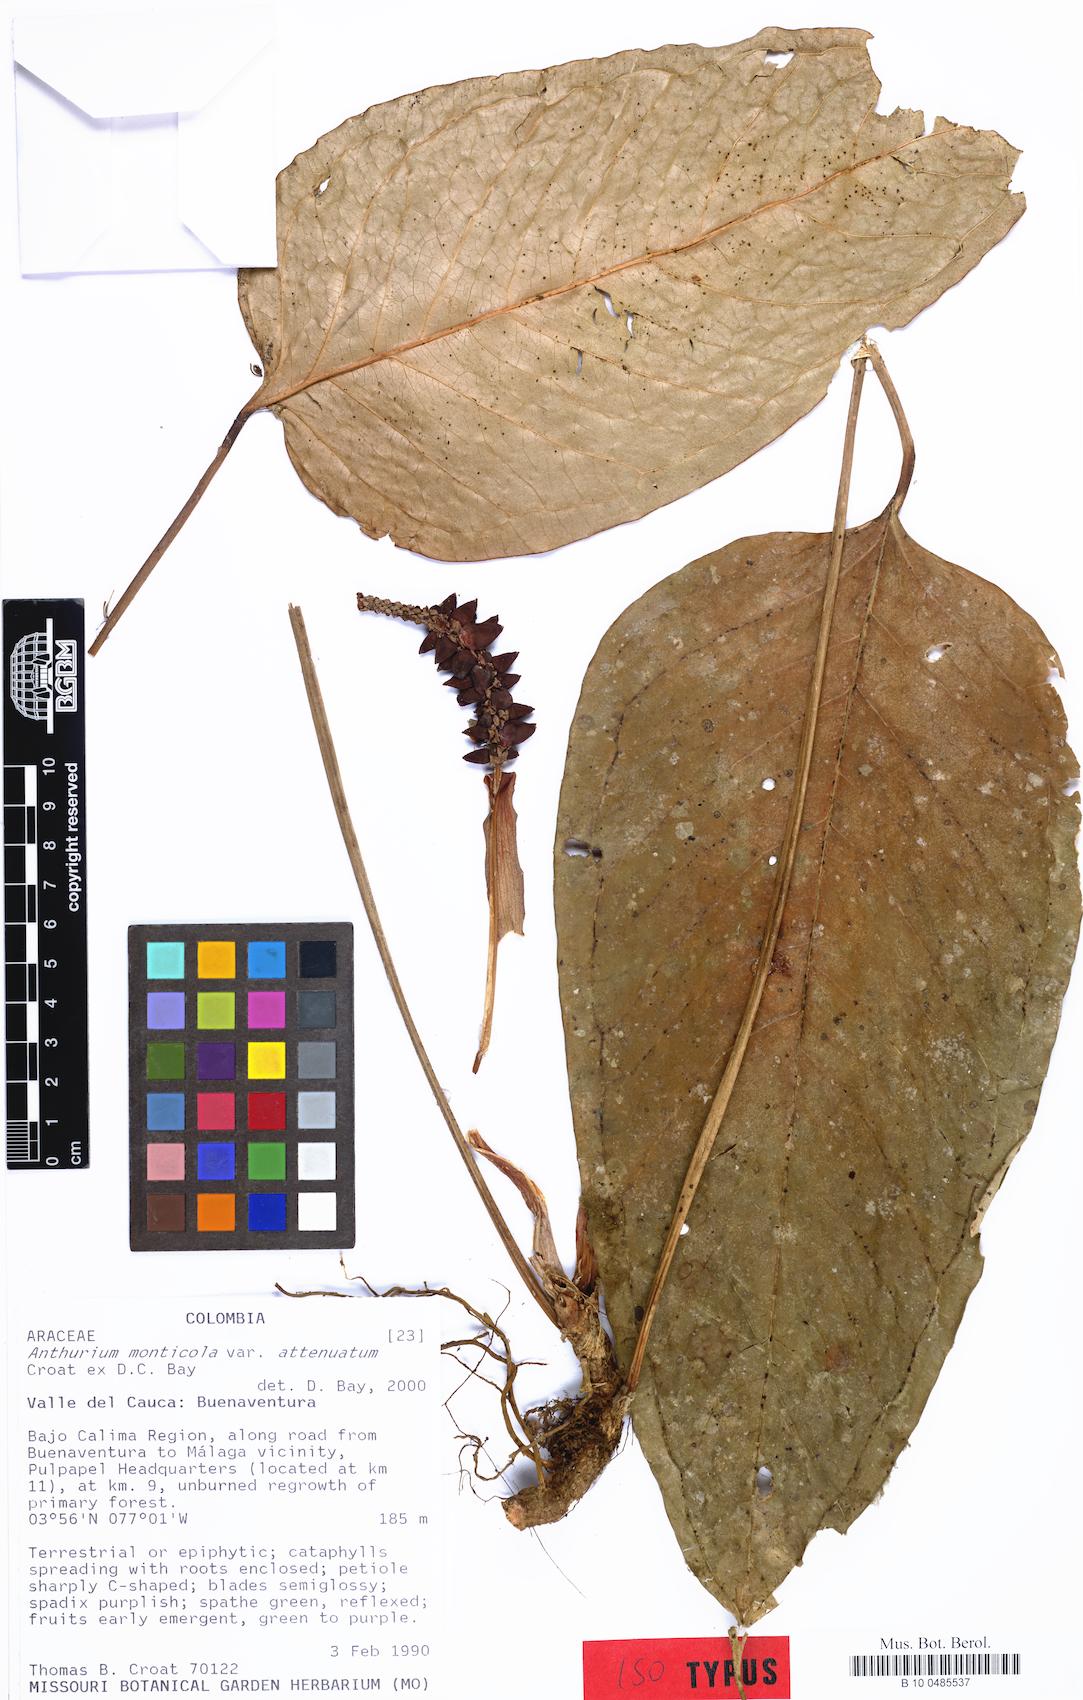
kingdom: Plantae
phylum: Tracheophyta
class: Liliopsida
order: Alismatales
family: Araceae
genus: Anthurium
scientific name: Anthurium monticola
